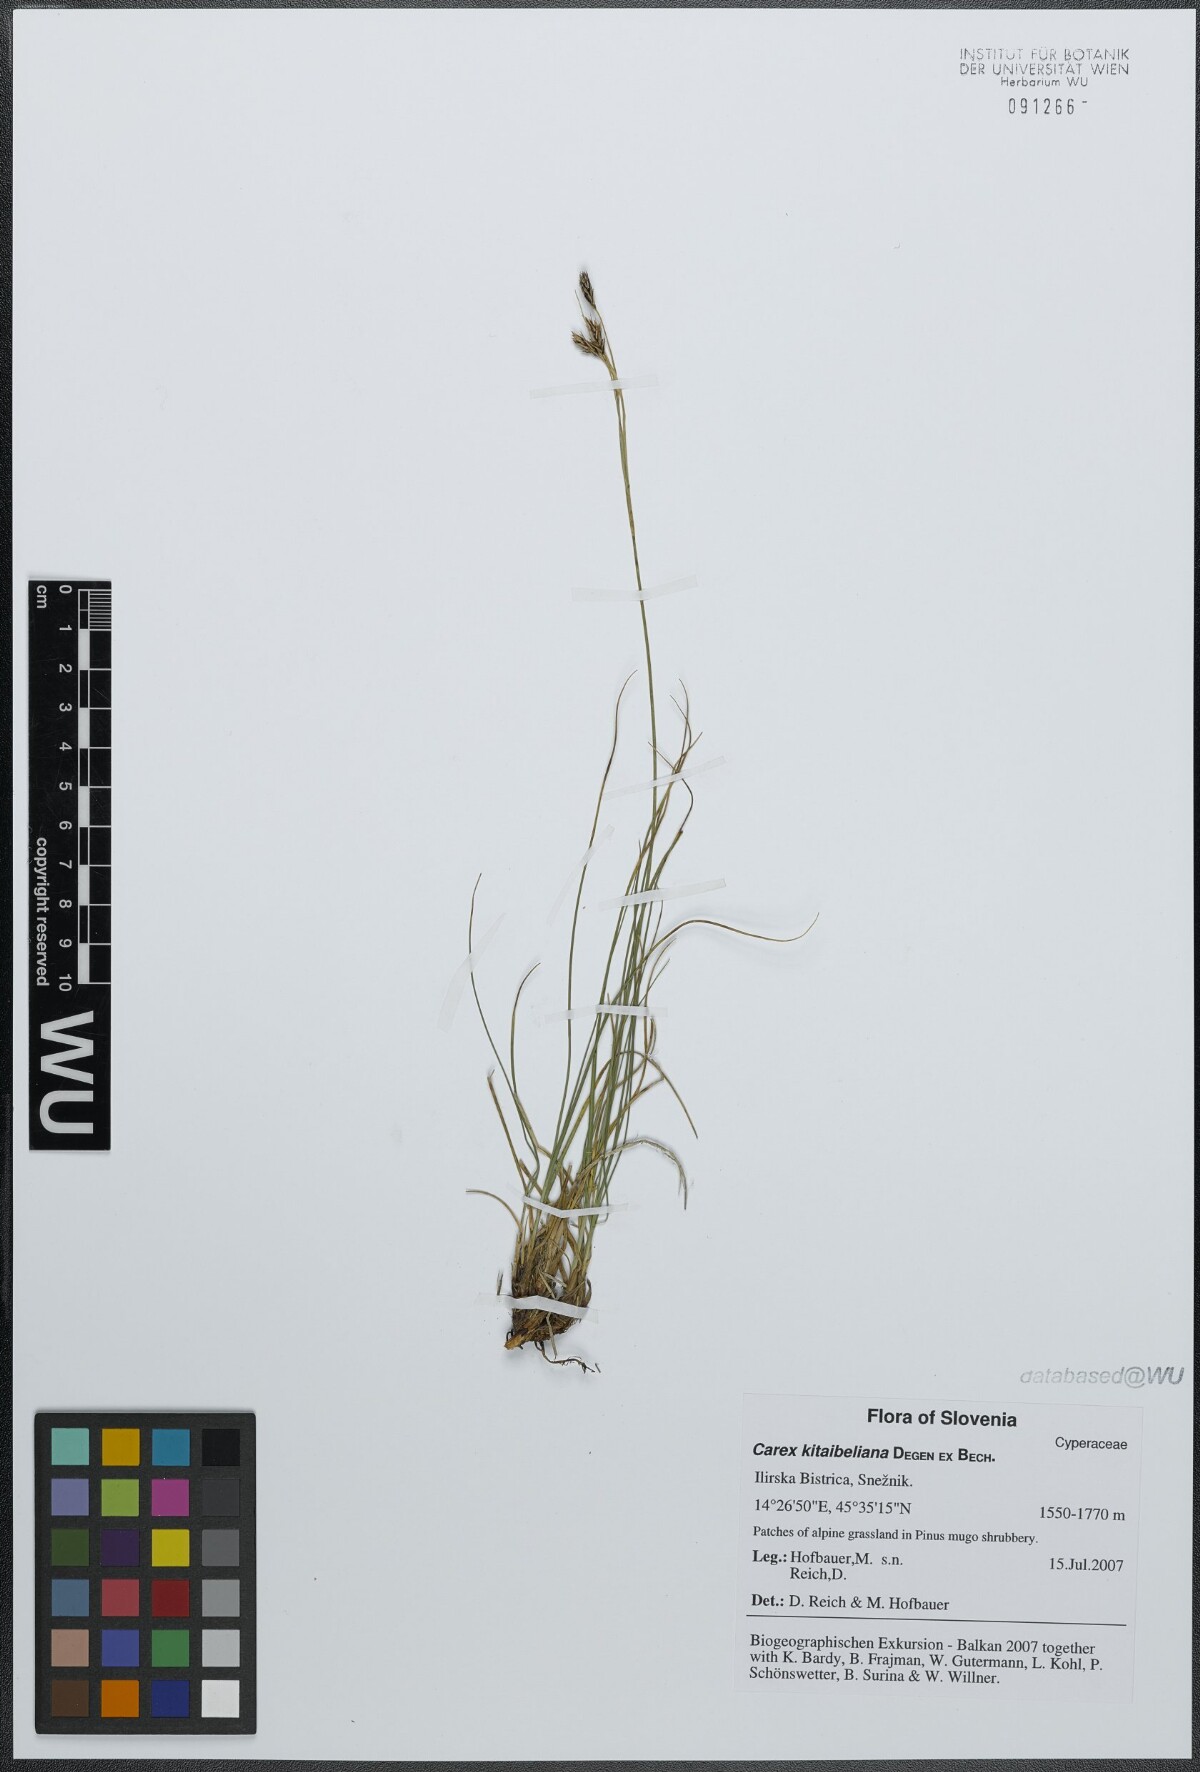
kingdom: Plantae
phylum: Tracheophyta
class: Liliopsida
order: Poales
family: Cyperaceae
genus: Carex
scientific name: Carex kitaibeliana
